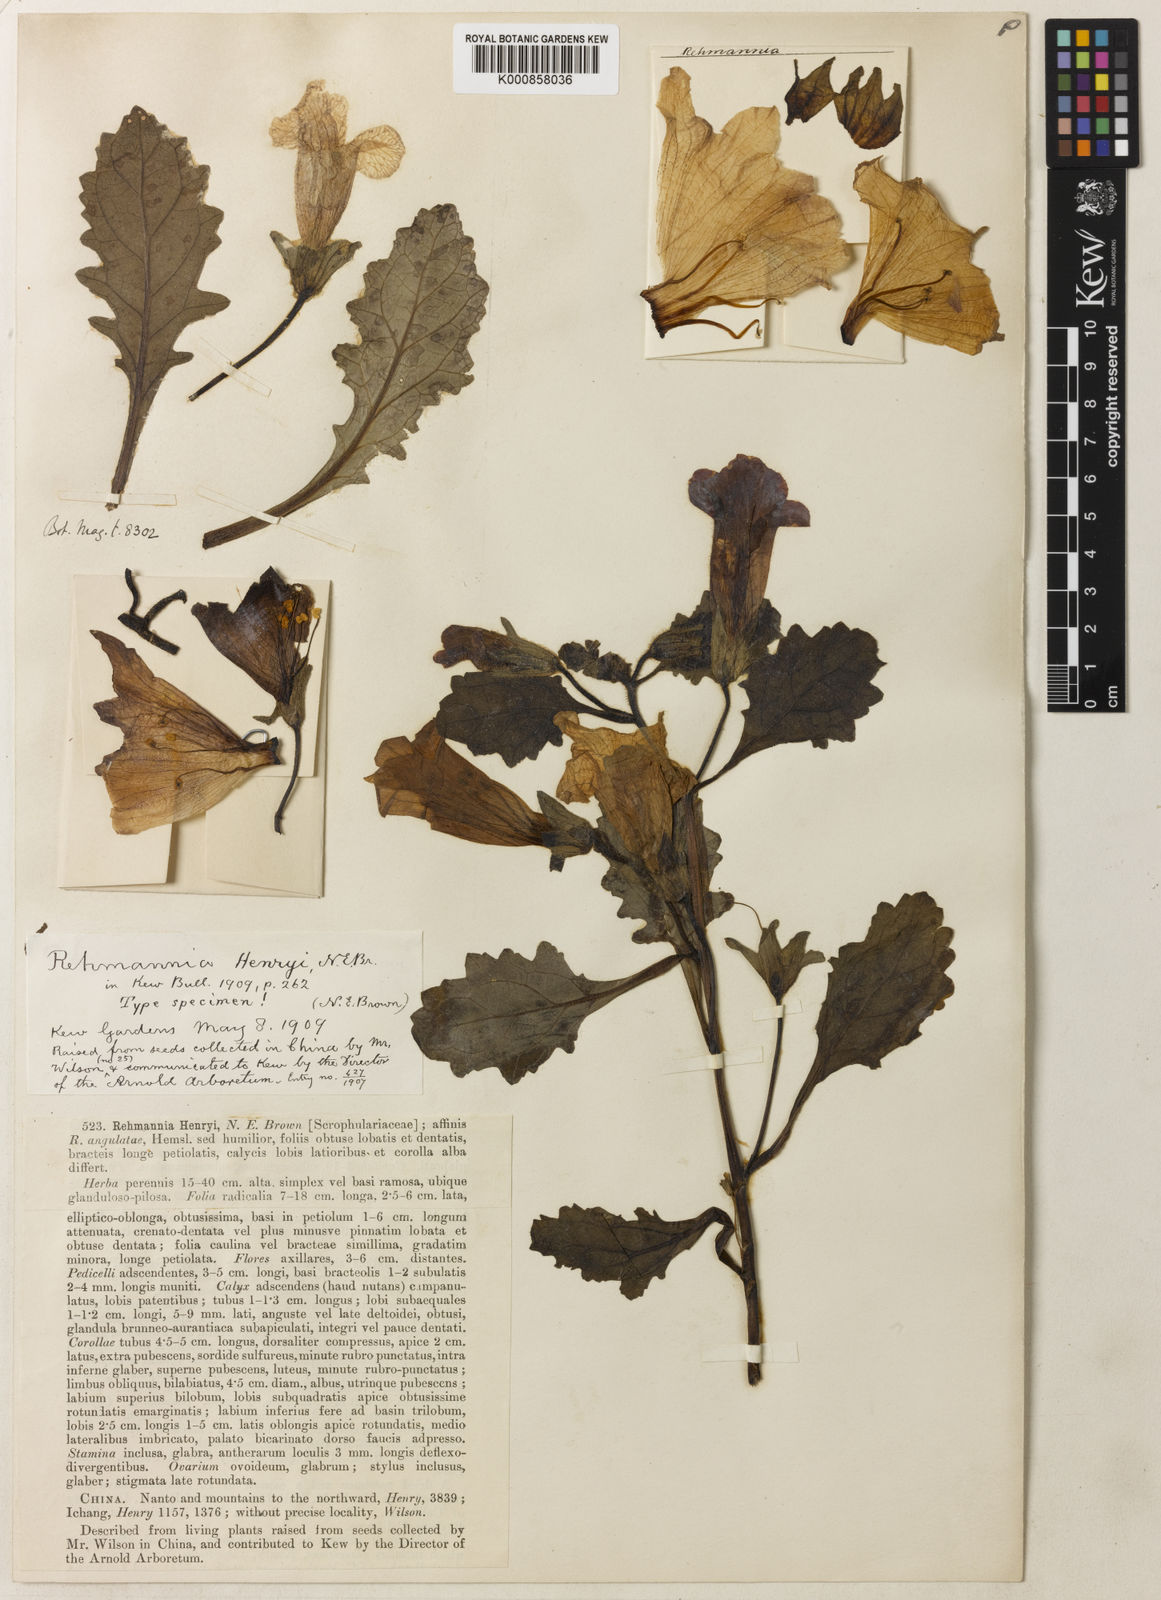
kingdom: Plantae
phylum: Tracheophyta
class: Magnoliopsida
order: Lamiales
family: Rehmanniaceae
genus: Rehmannia
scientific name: Rehmannia henryi
